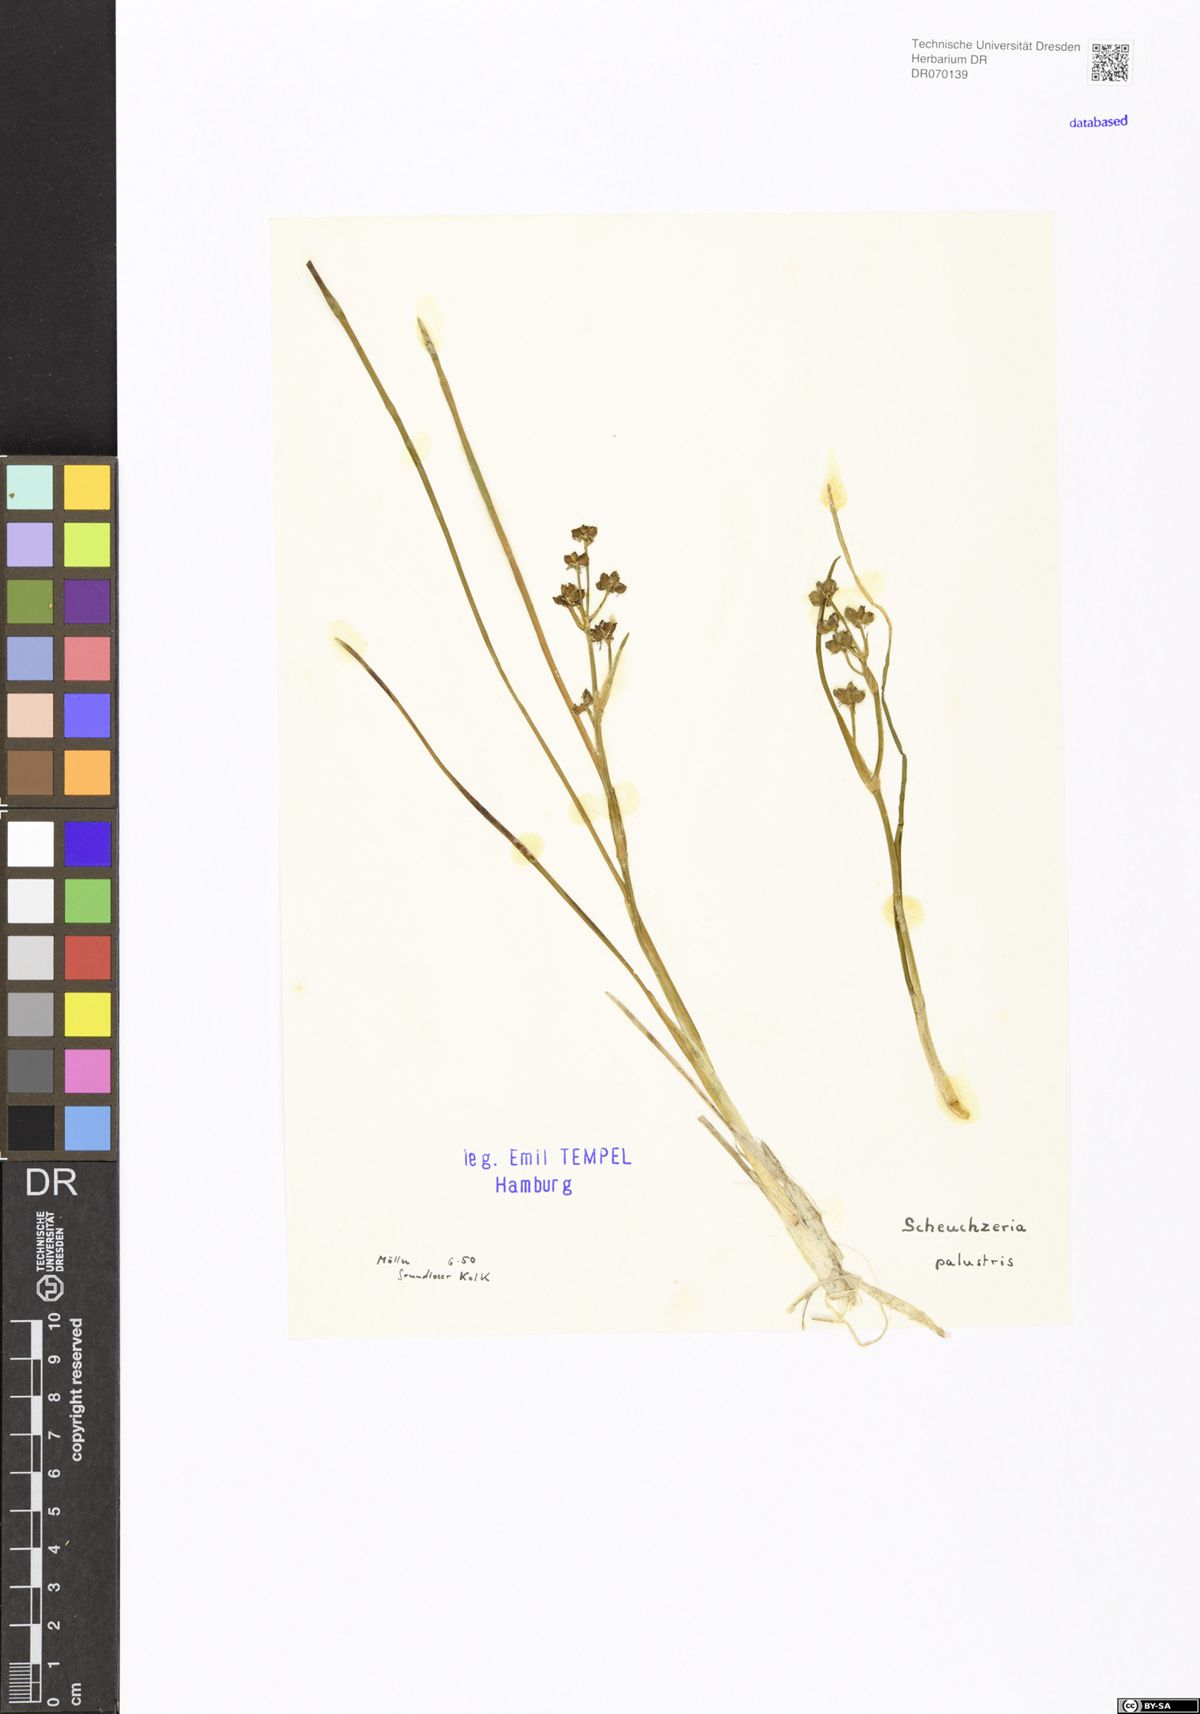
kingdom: Plantae
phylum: Tracheophyta
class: Liliopsida
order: Alismatales
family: Scheuchzeriaceae
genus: Scheuchzeria
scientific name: Scheuchzeria palustris
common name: Rannoch-rush
